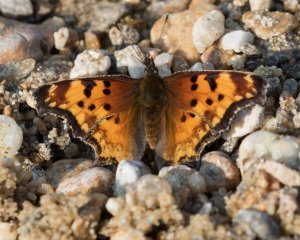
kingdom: Animalia
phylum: Arthropoda
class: Insecta
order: Lepidoptera
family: Nymphalidae
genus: Polygonia
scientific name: Polygonia gracilis
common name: Hoary Comma
